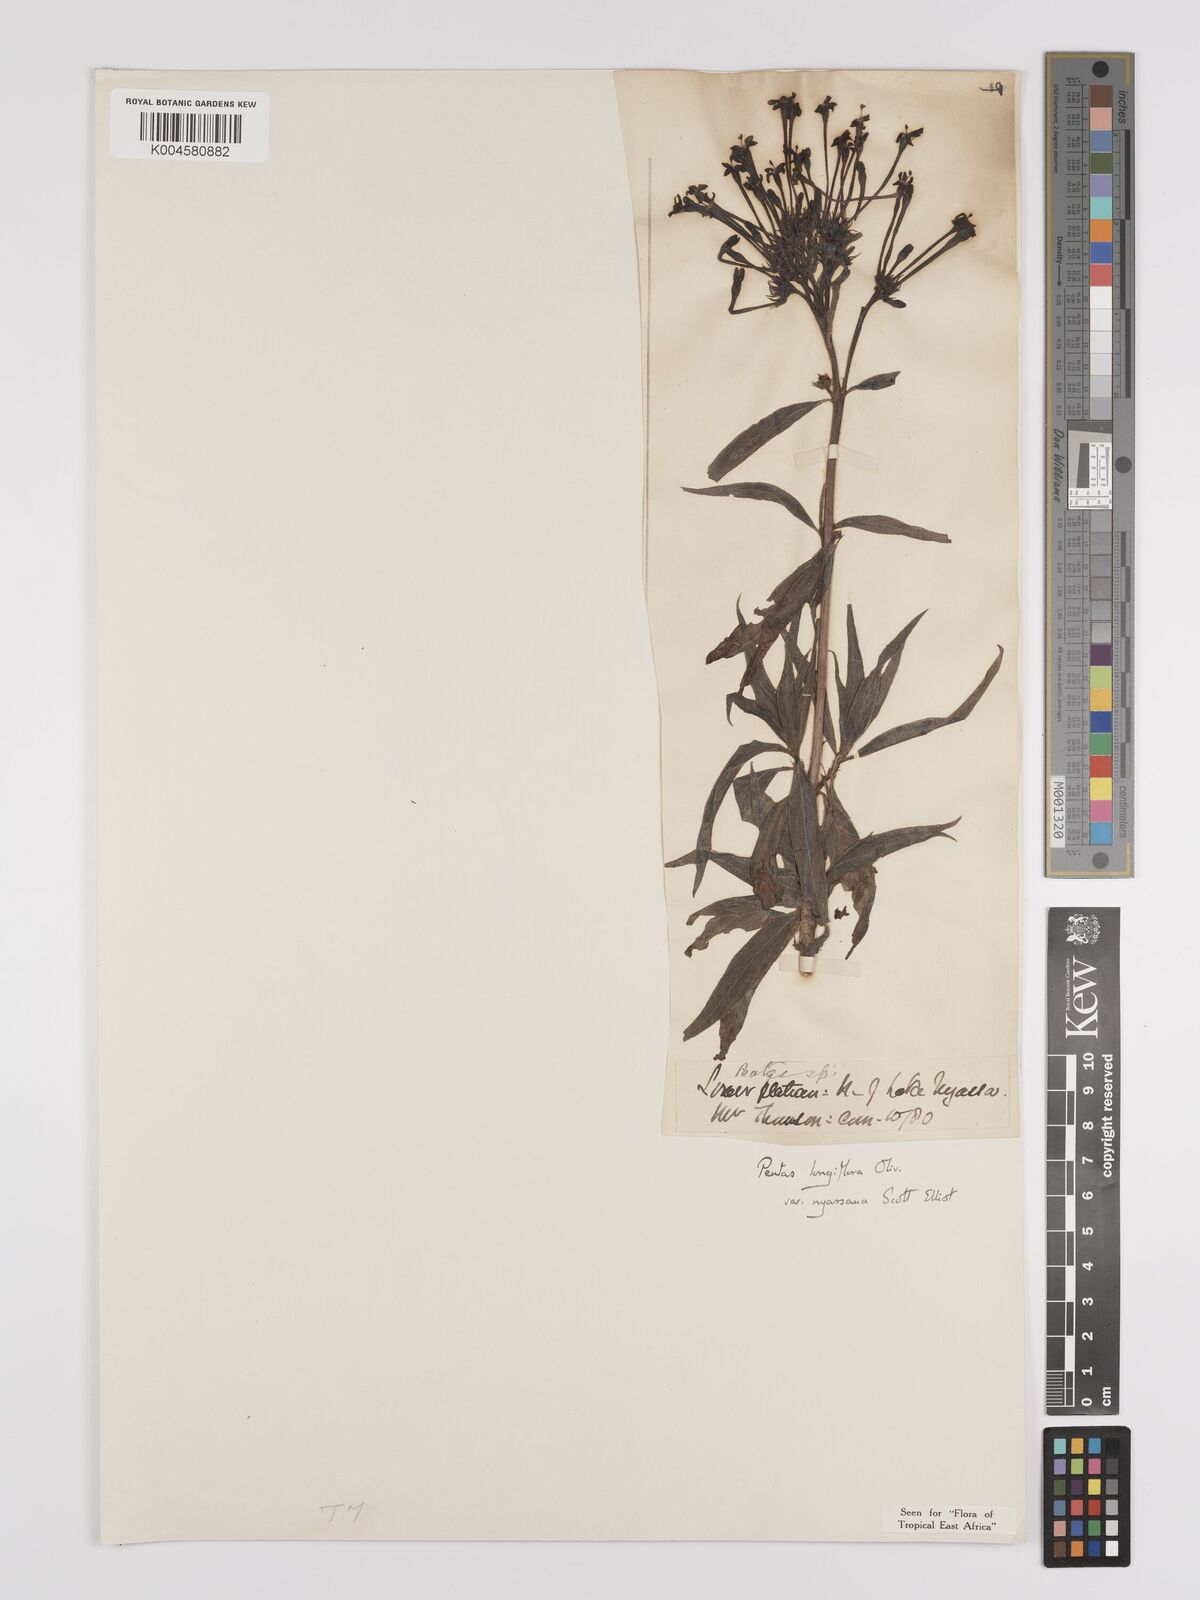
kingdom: Plantae
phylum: Tracheophyta
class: Magnoliopsida
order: Gentianales
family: Rubiaceae
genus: Dolichopentas
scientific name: Dolichopentas longiflora
